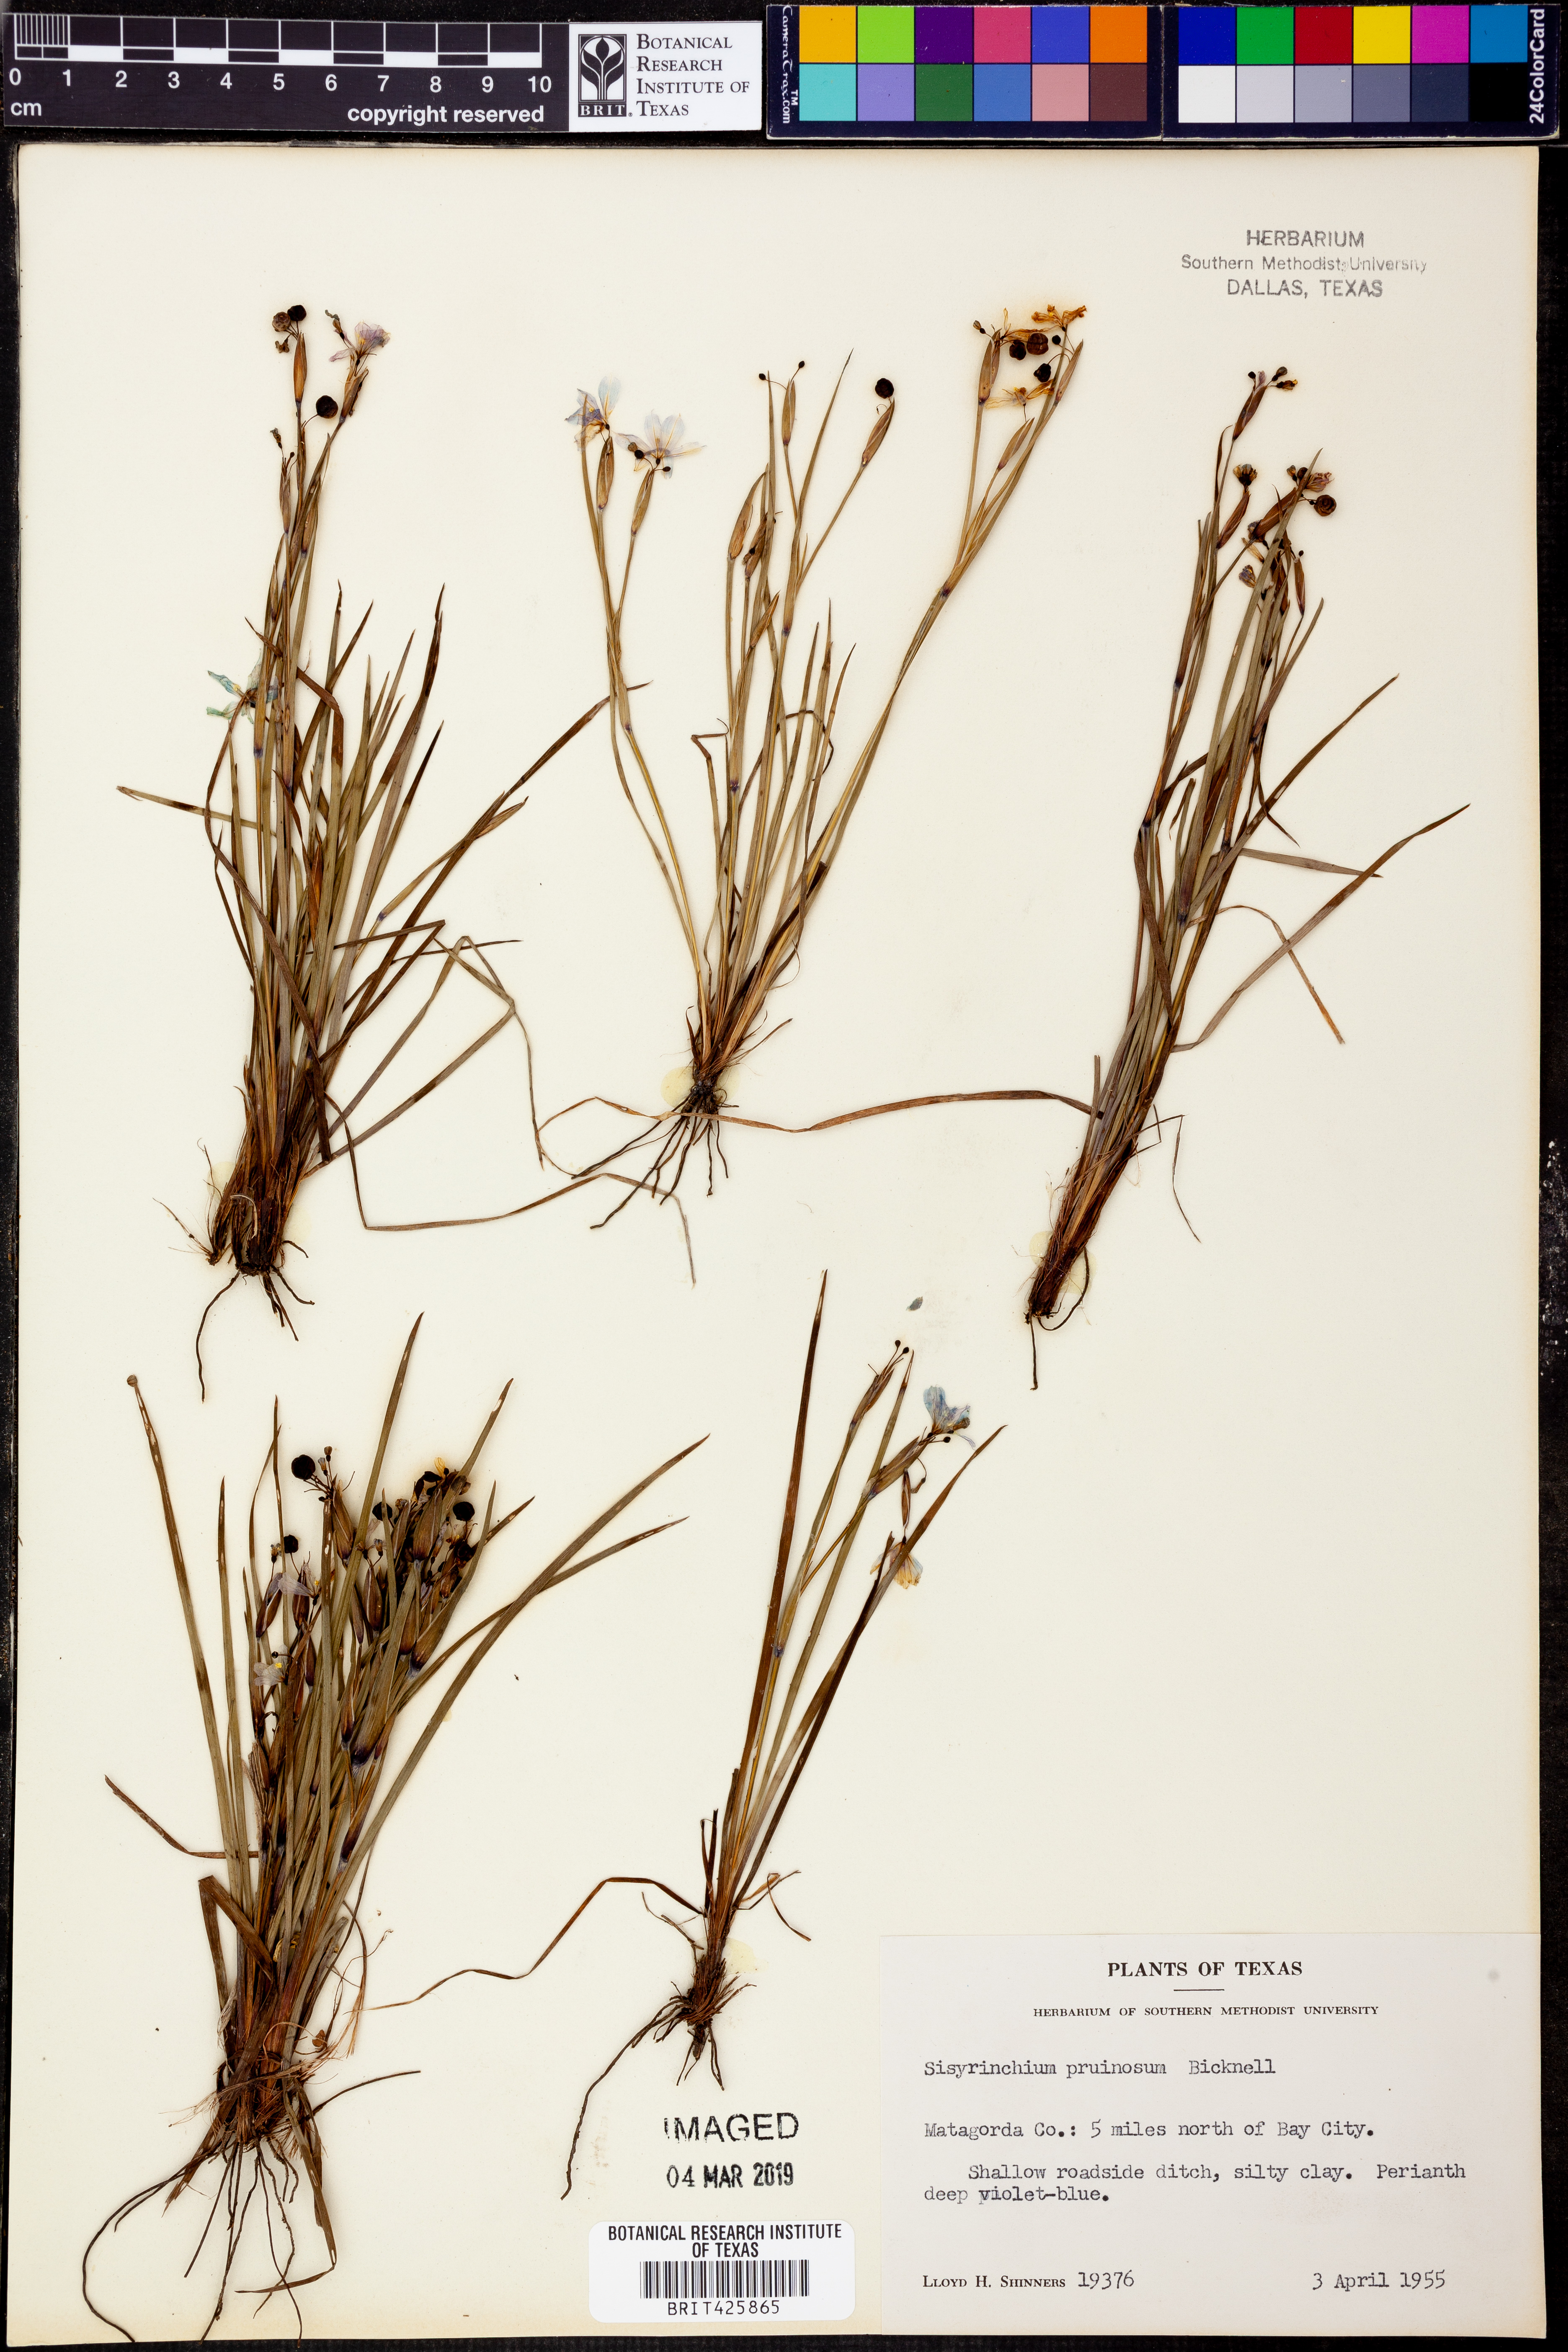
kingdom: Plantae
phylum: Tracheophyta
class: Liliopsida
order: Asparagales
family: Iridaceae
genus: Sisyrinchium
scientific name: Sisyrinchium pruinosum
